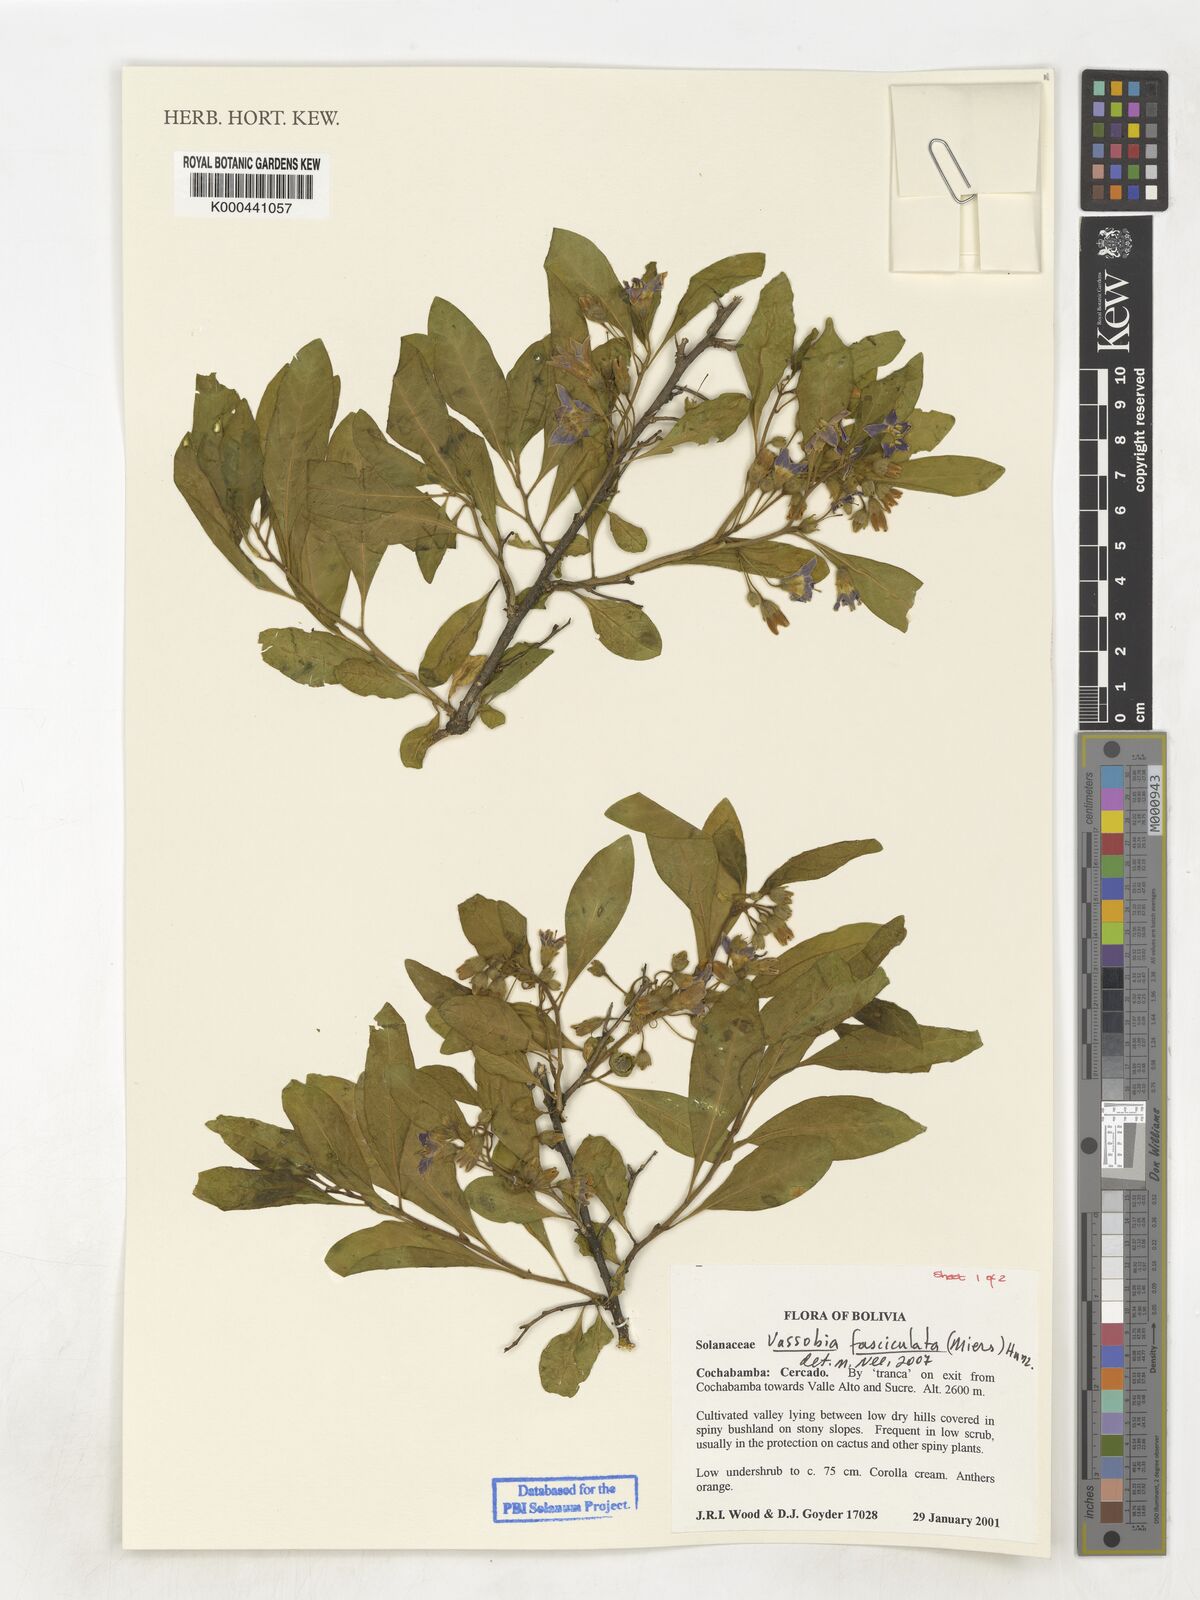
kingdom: Plantae
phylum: Tracheophyta
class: Magnoliopsida
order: Solanales
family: Solanaceae
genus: Eriolarynx
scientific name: Eriolarynx fasciculata
